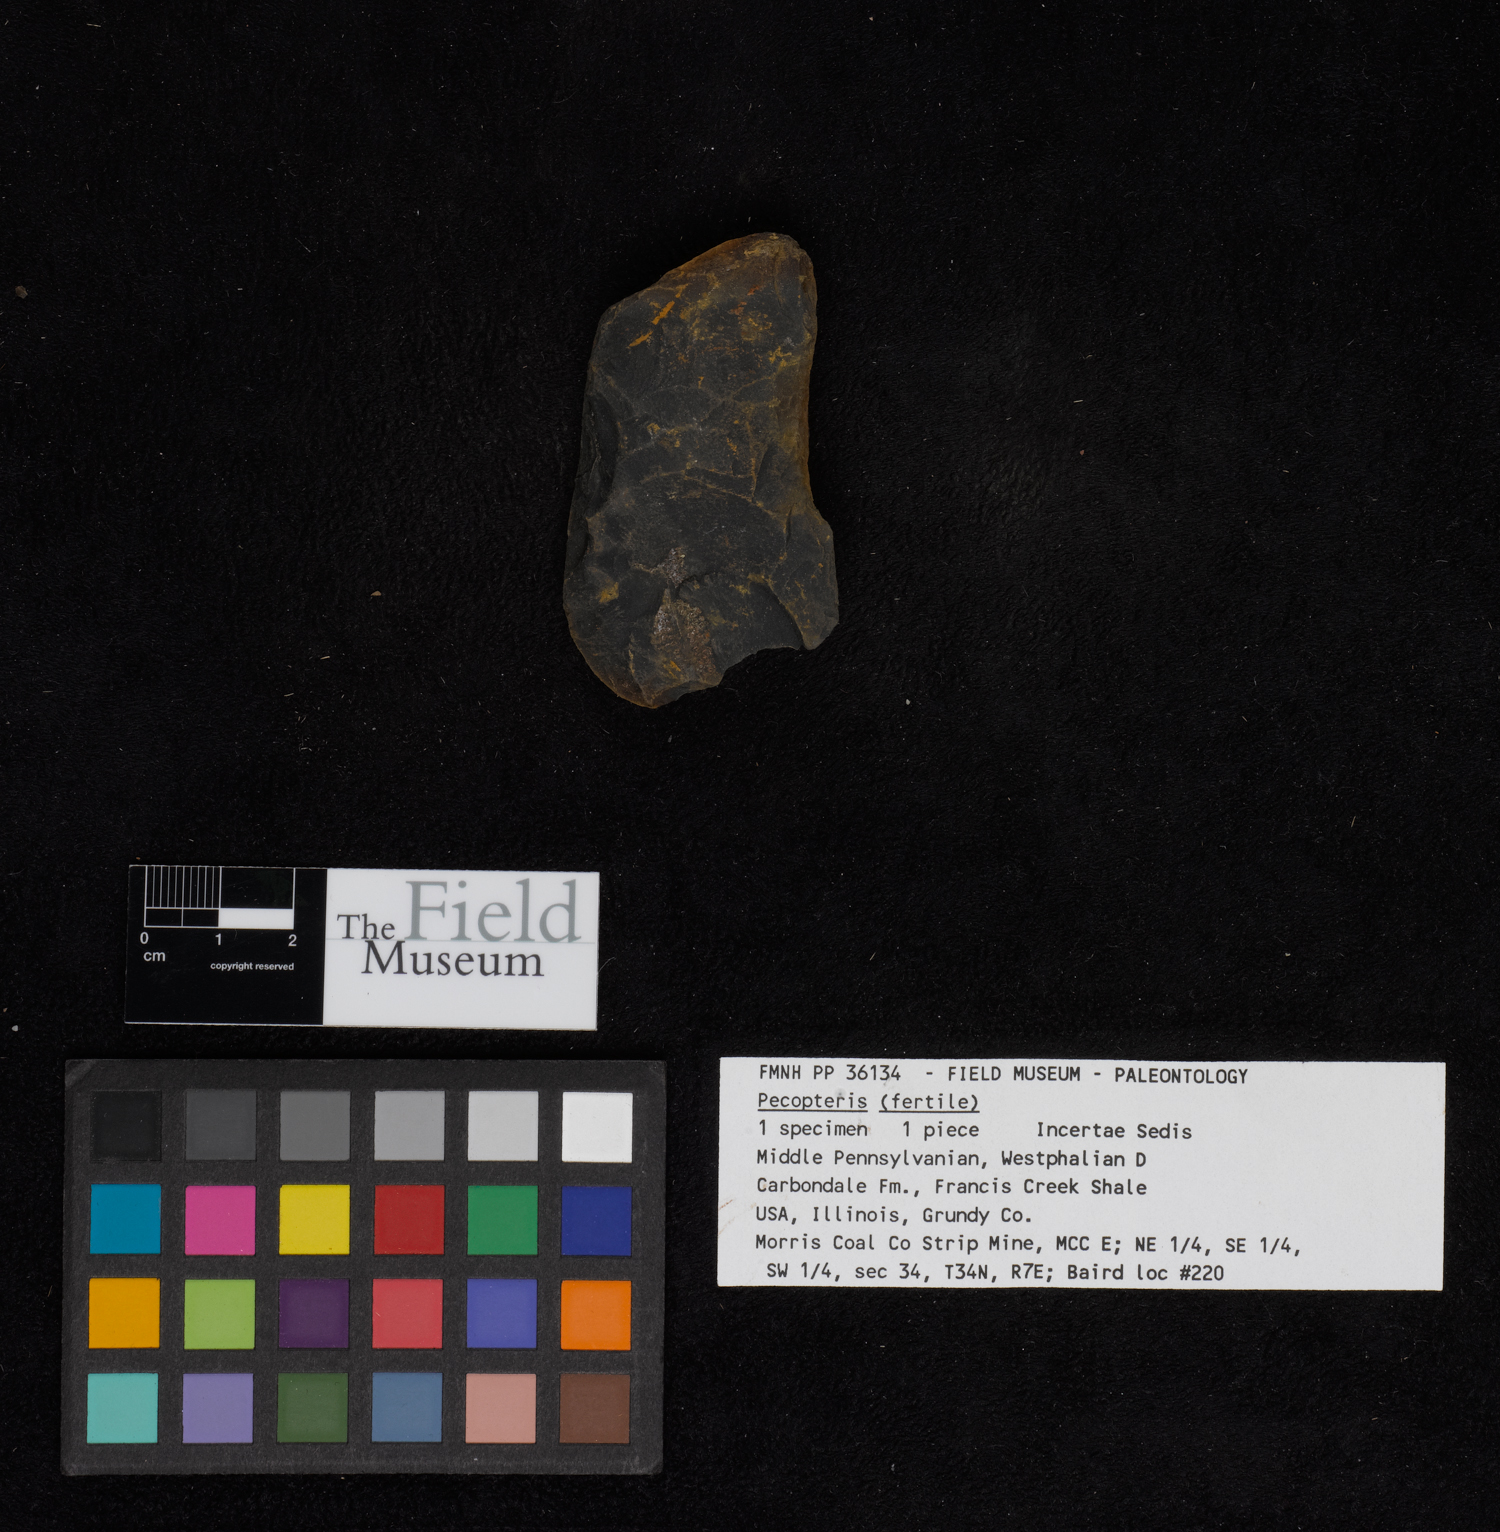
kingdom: Plantae
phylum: Tracheophyta
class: Polypodiopsida
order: Marattiales
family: Asterothecaceae
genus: Pecopteris
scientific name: Pecopteris
